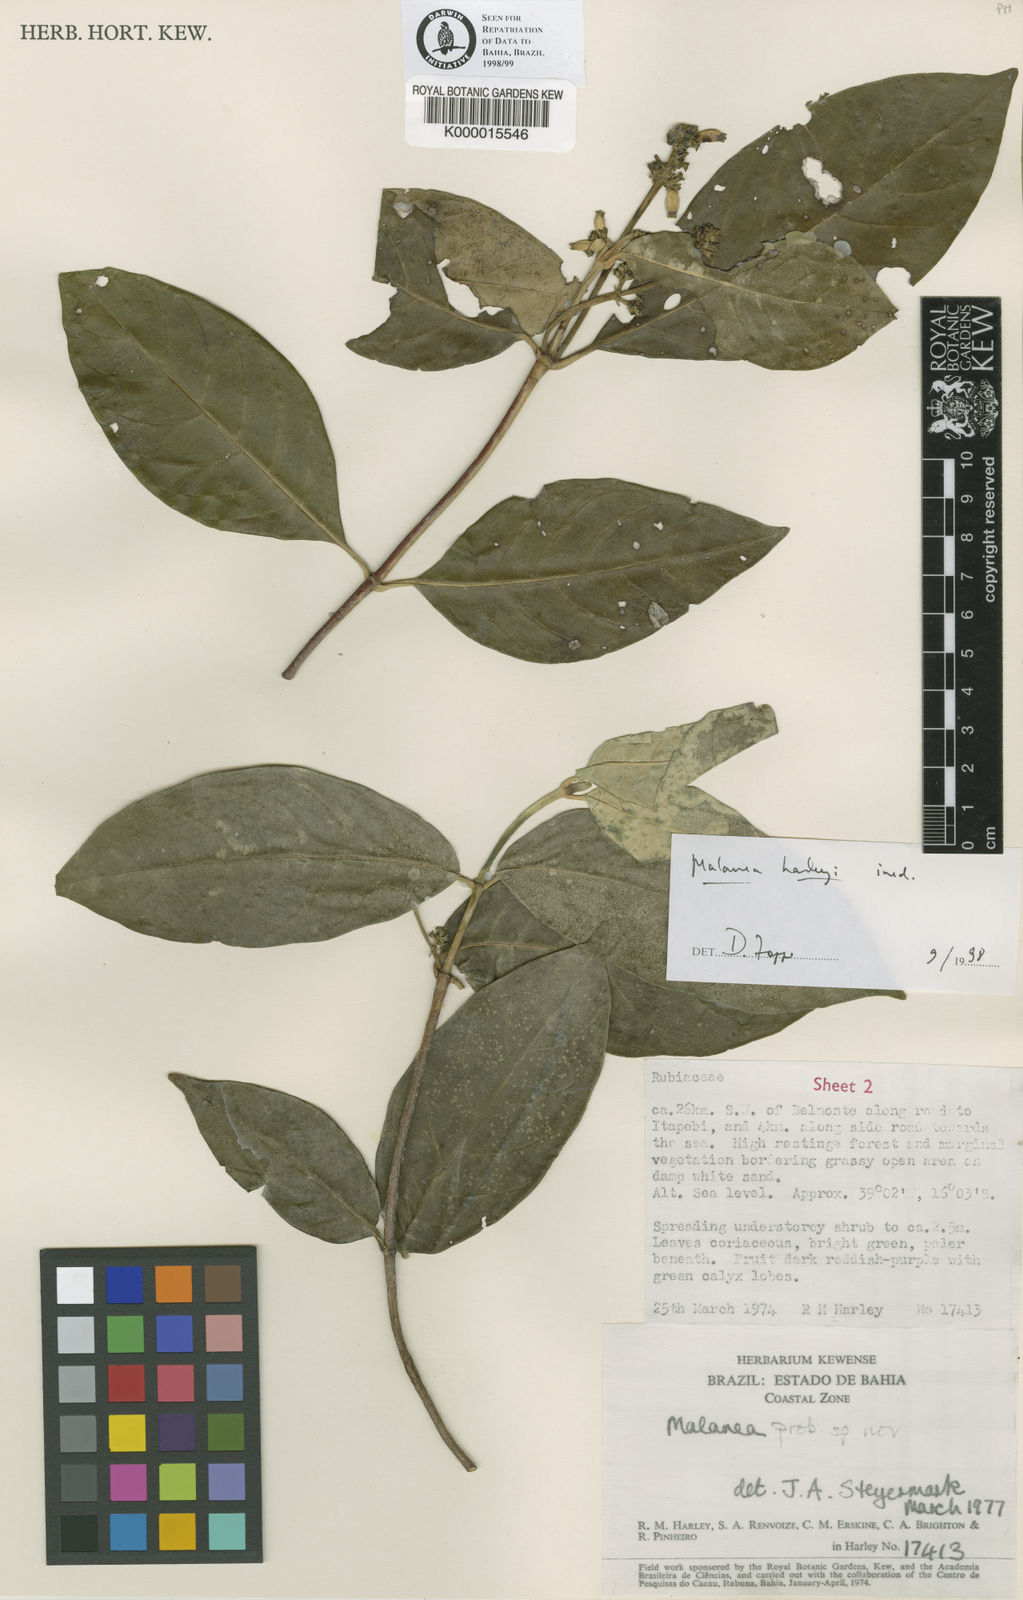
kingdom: Plantae
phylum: Tracheophyta
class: Magnoliopsida
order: Gentianales
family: Rubiaceae
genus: Malanea
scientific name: Malanea harleyi
